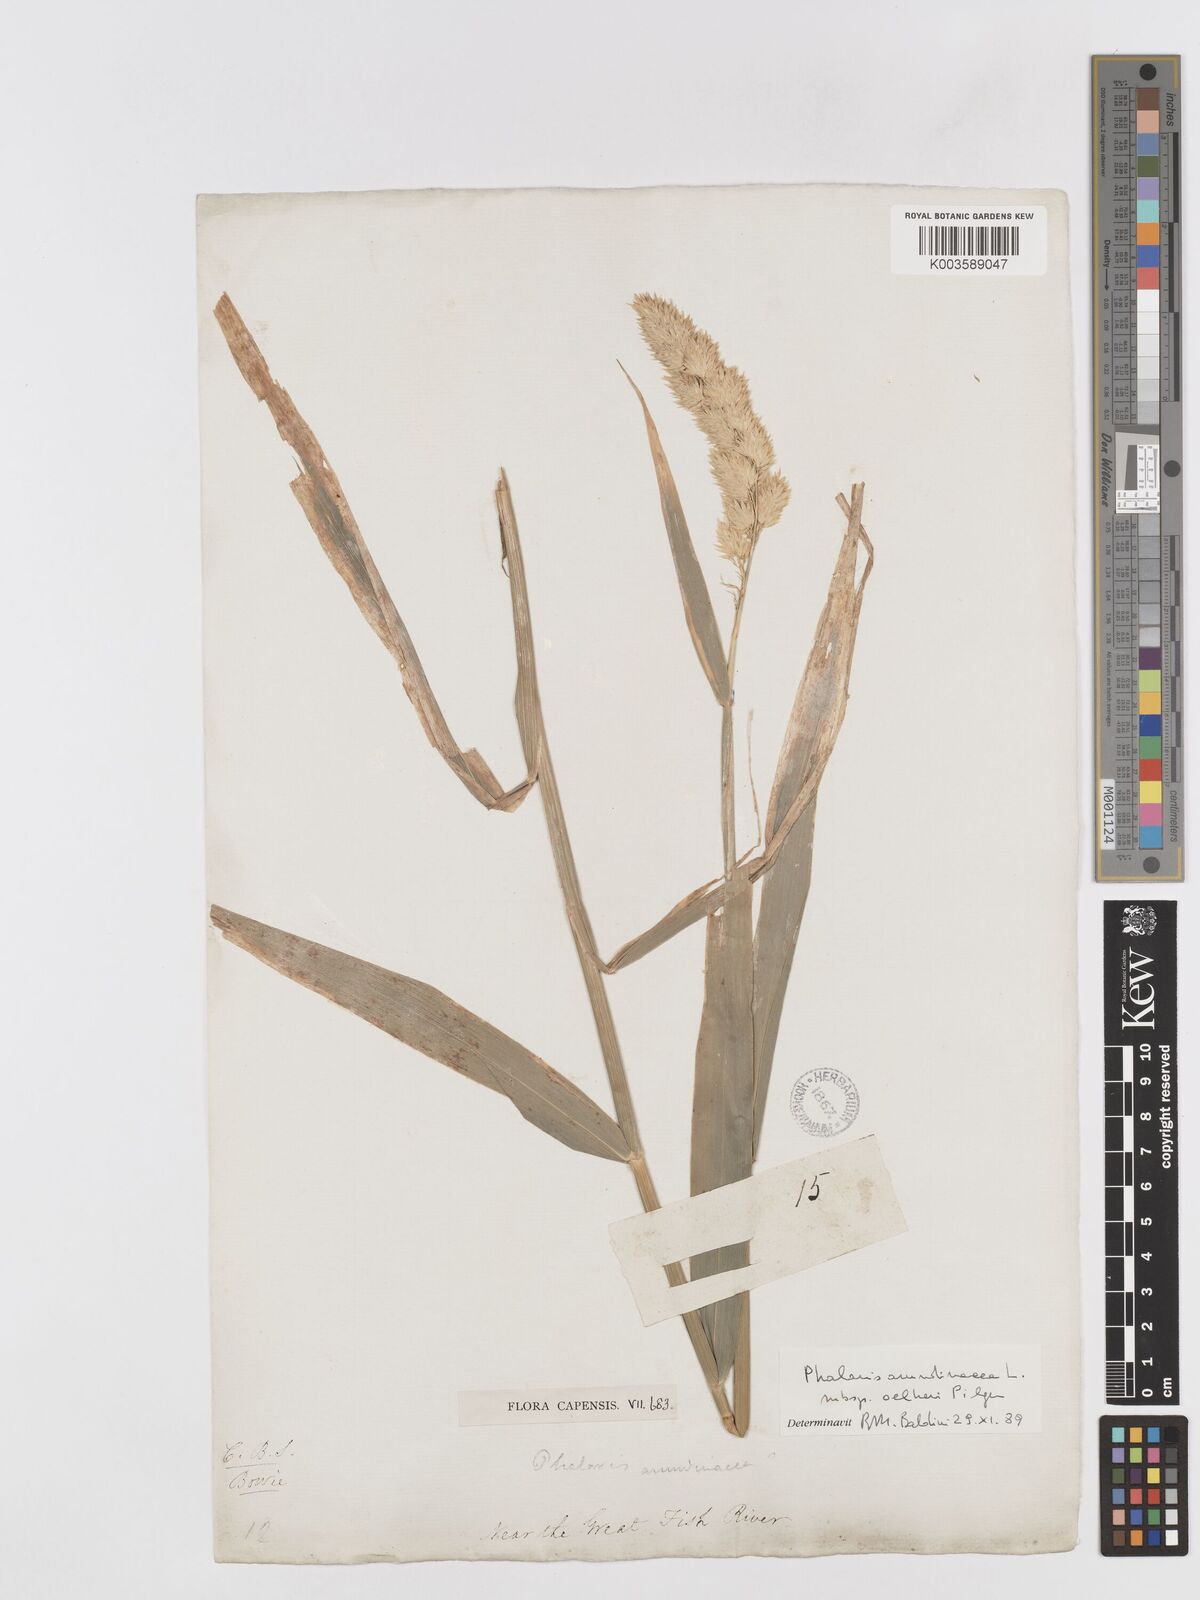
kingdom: Plantae
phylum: Tracheophyta
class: Liliopsida
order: Poales
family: Poaceae
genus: Phalaris
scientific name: Phalaris arundinacea
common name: Reed canary-grass
